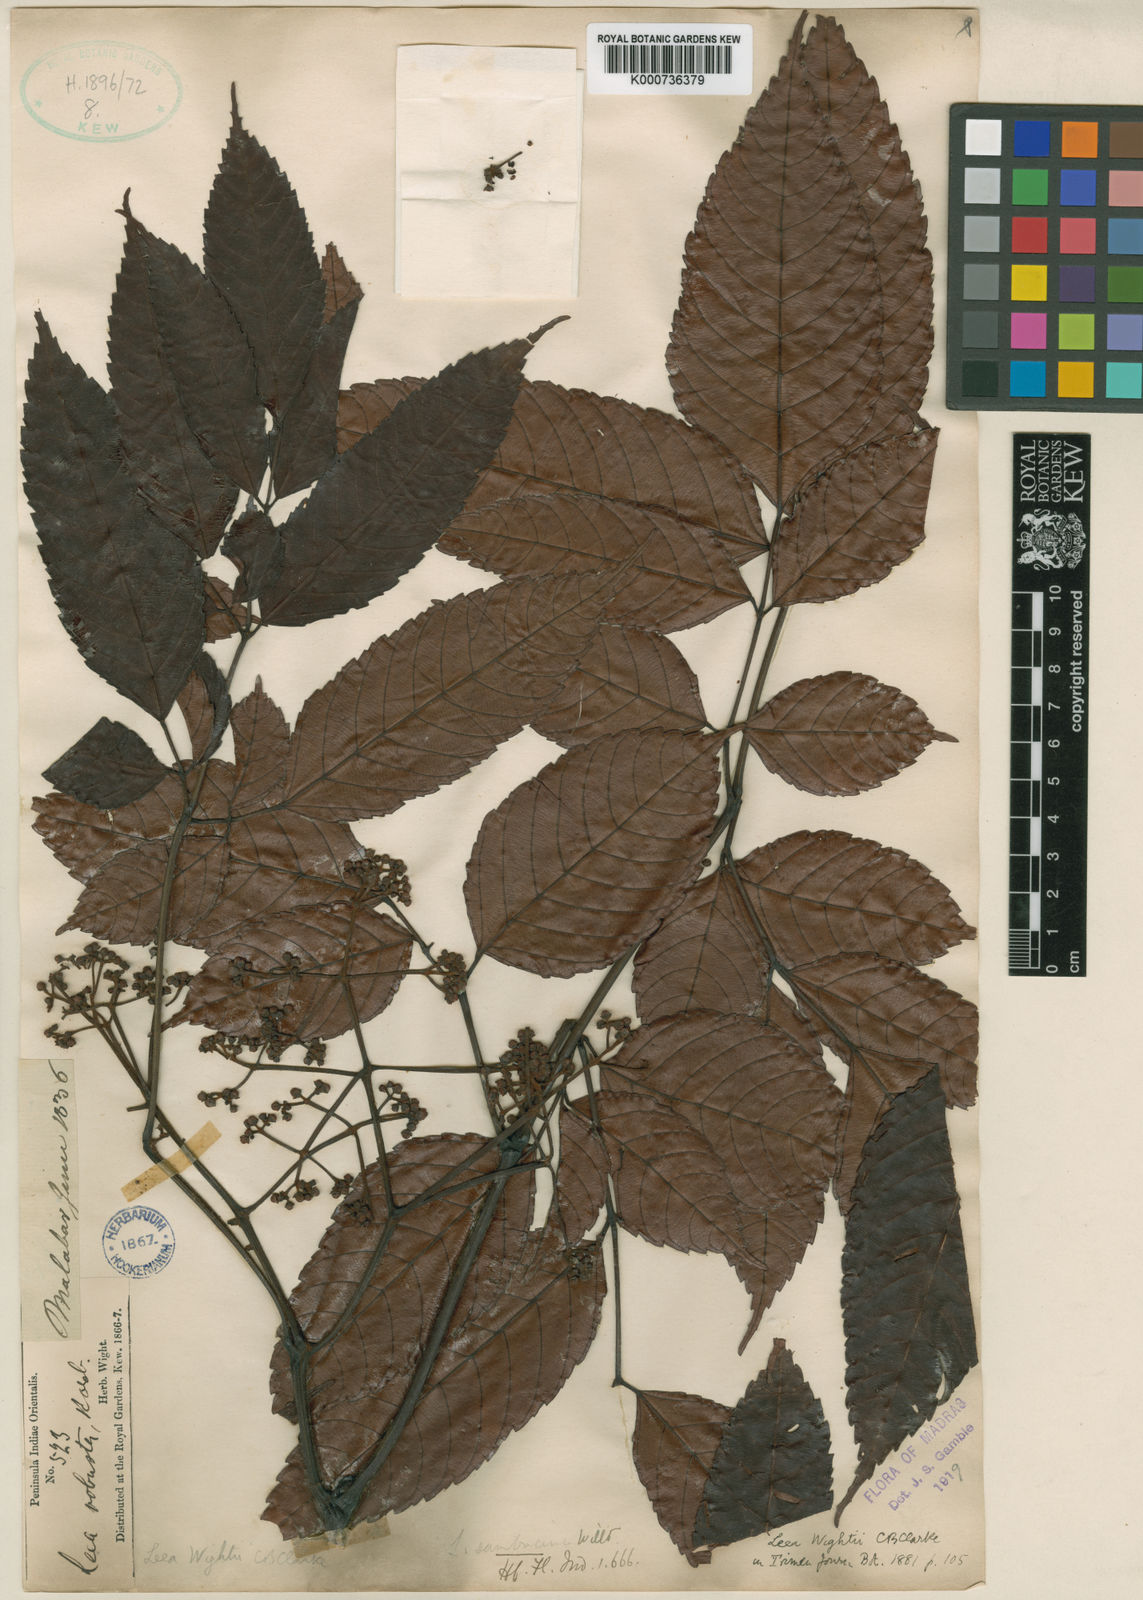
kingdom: Plantae
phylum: Tracheophyta
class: Magnoliopsida
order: Vitales
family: Vitaceae
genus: Leea
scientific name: Leea guineensis
